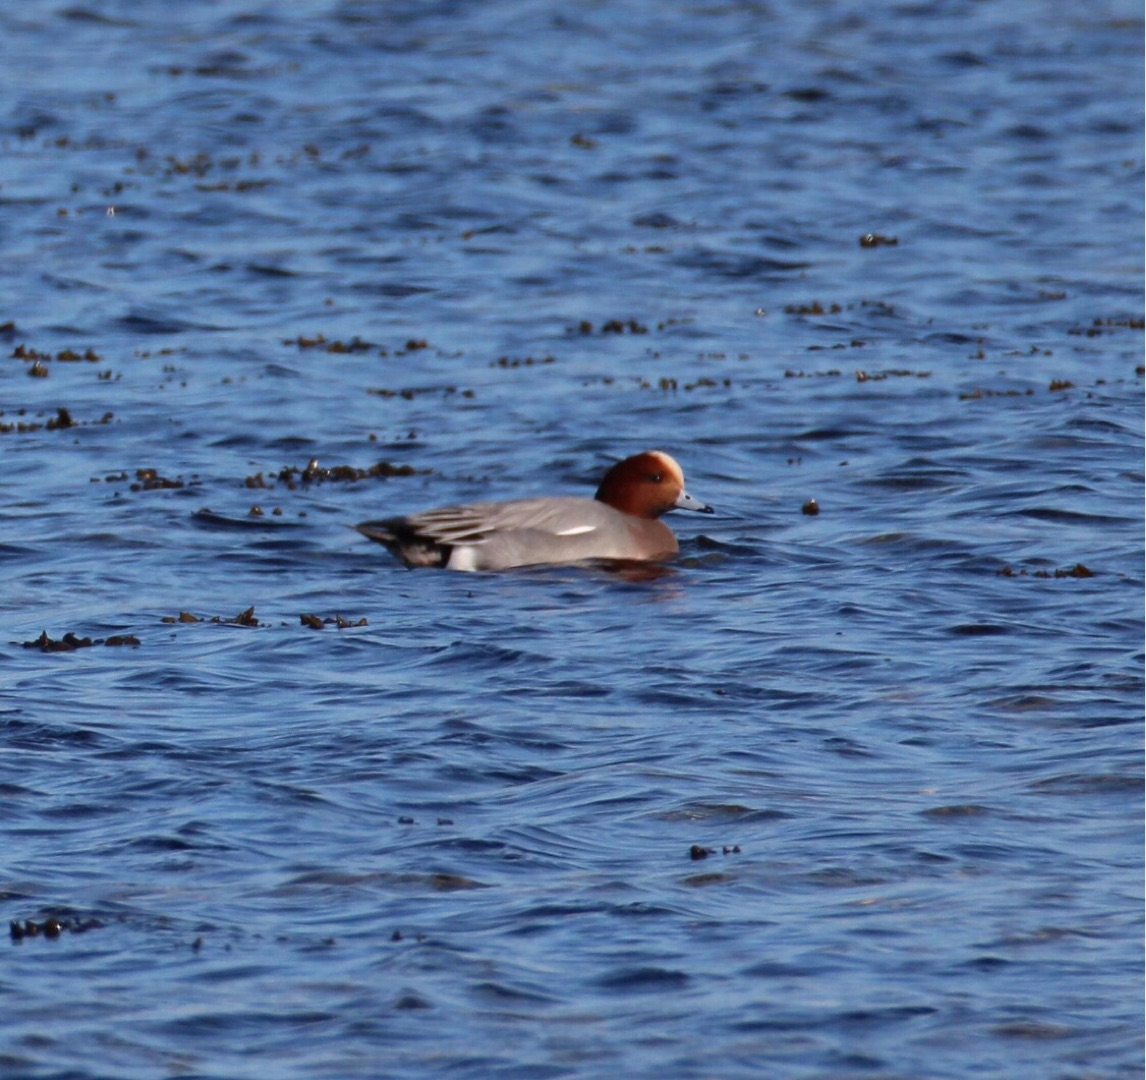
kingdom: Animalia
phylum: Chordata
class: Aves
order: Anseriformes
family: Anatidae
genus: Mareca
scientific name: Mareca penelope
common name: Pibeand
